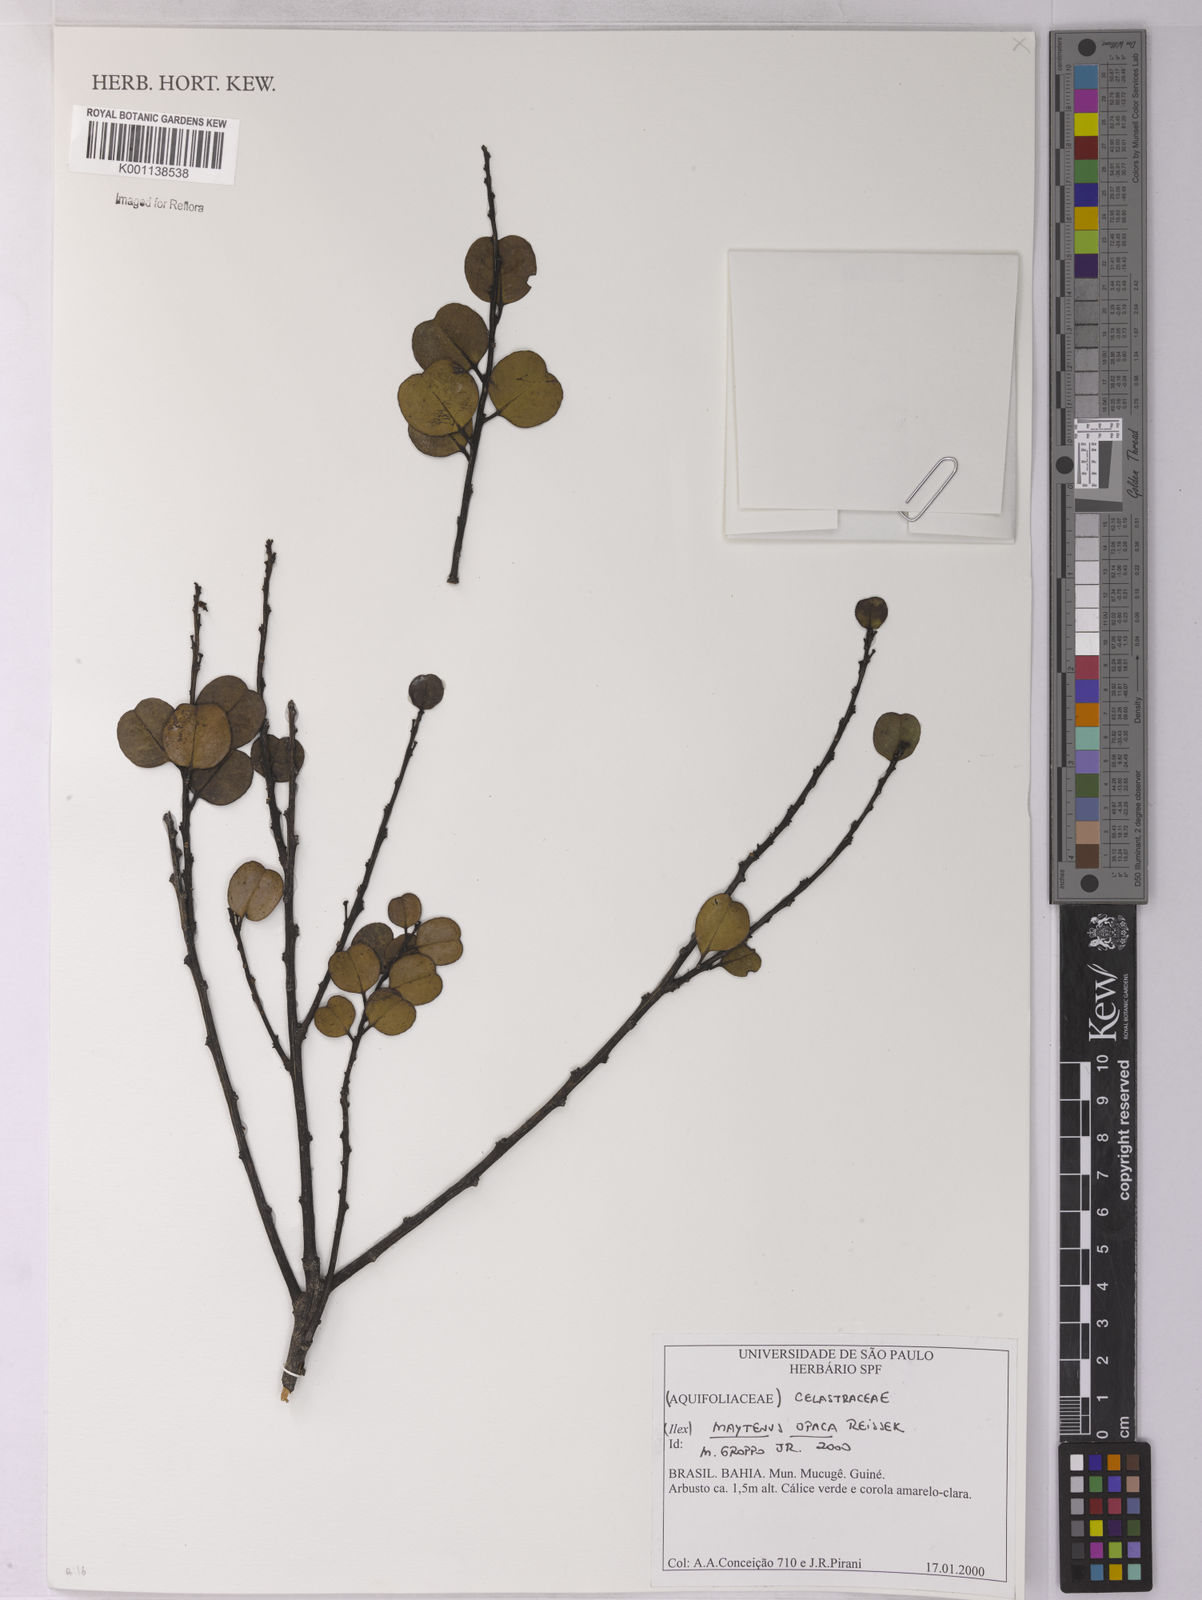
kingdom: Plantae
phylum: Tracheophyta
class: Magnoliopsida
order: Celastrales
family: Celastraceae
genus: Monteverdia
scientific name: Monteverdia opaca
